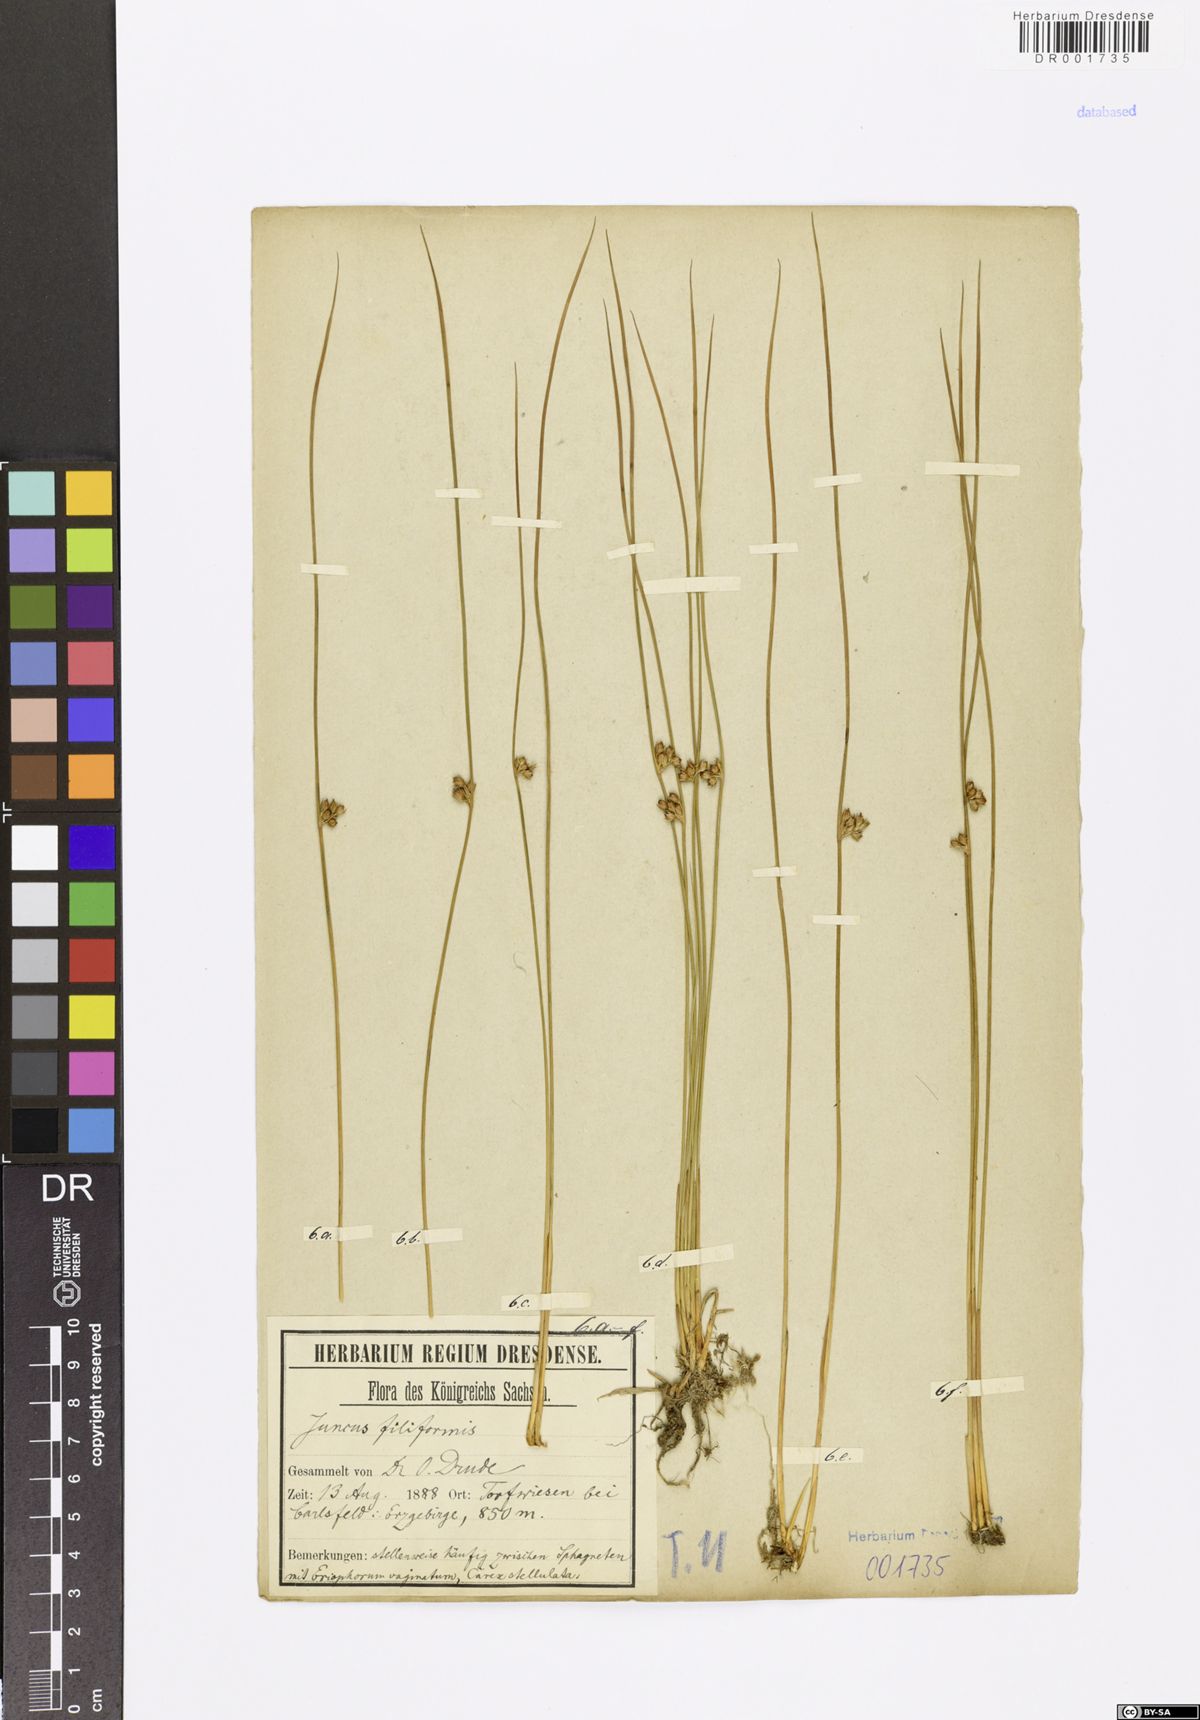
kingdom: Plantae
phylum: Tracheophyta
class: Liliopsida
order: Poales
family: Juncaceae
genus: Juncus
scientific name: Juncus inflexus
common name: Hard rush
